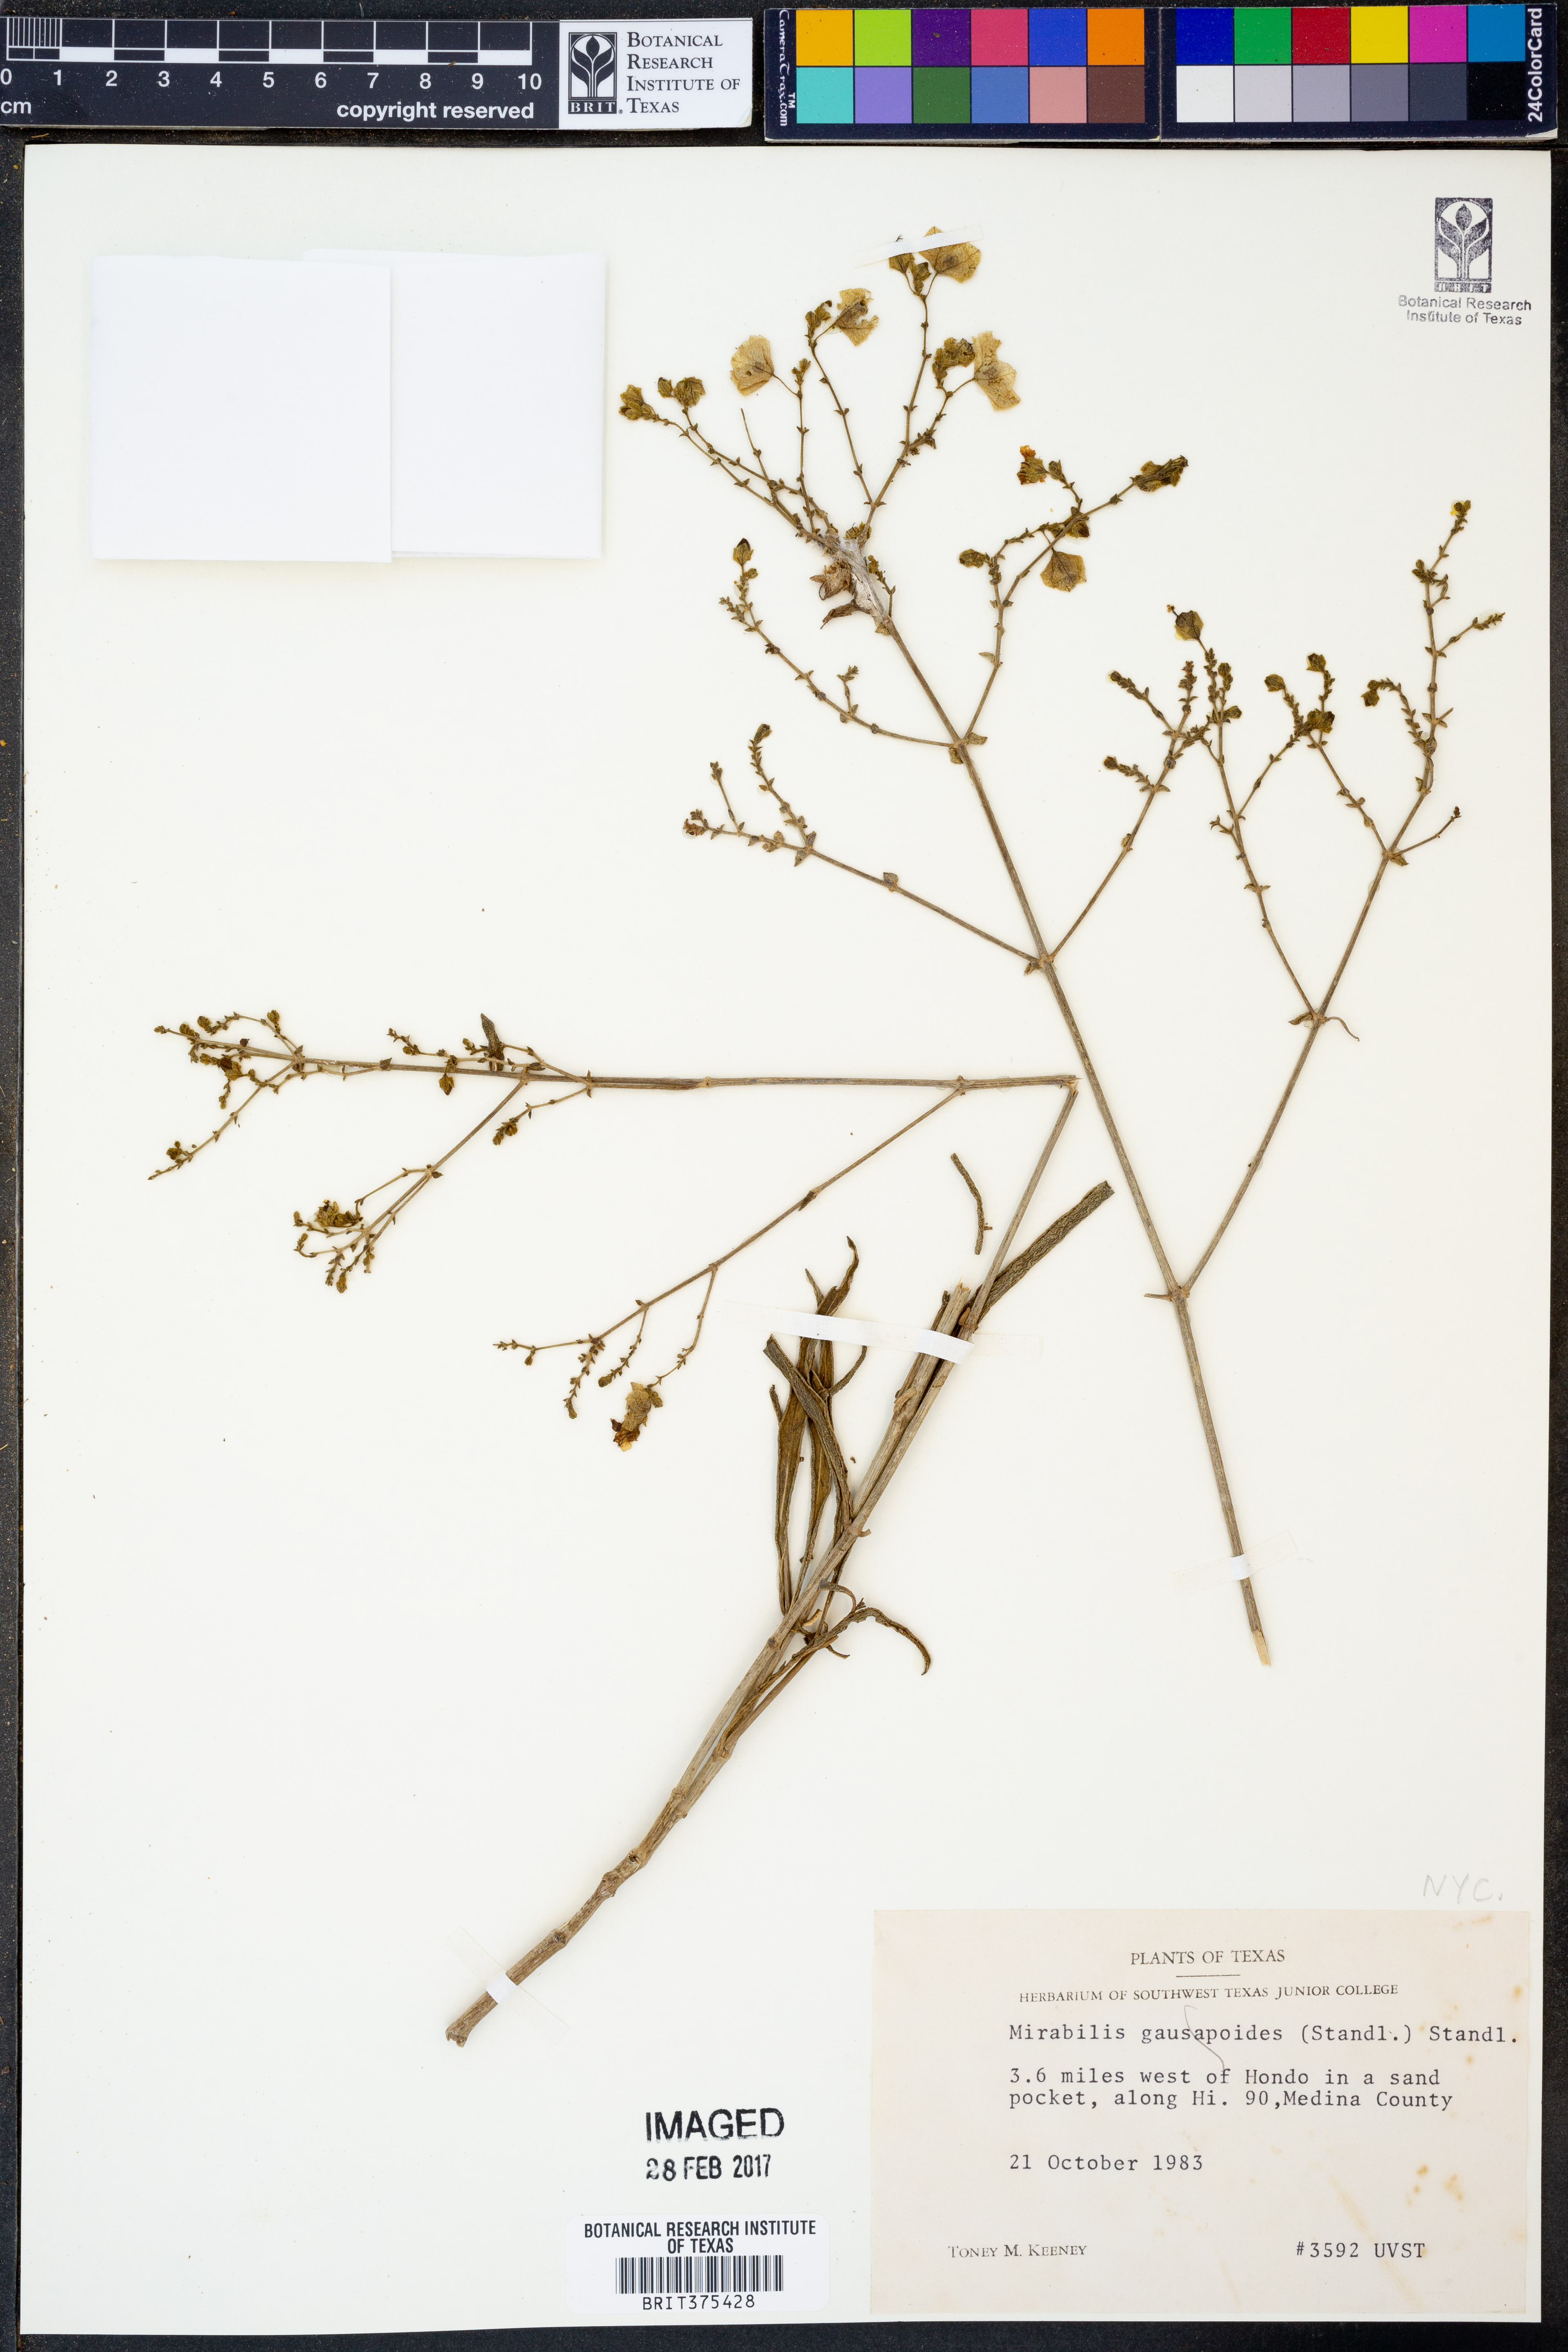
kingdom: Plantae
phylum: Tracheophyta
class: Magnoliopsida
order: Caryophyllales
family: Nyctaginaceae
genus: Mirabilis
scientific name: Mirabilis linearis
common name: Linear-leaved four-o'clock
